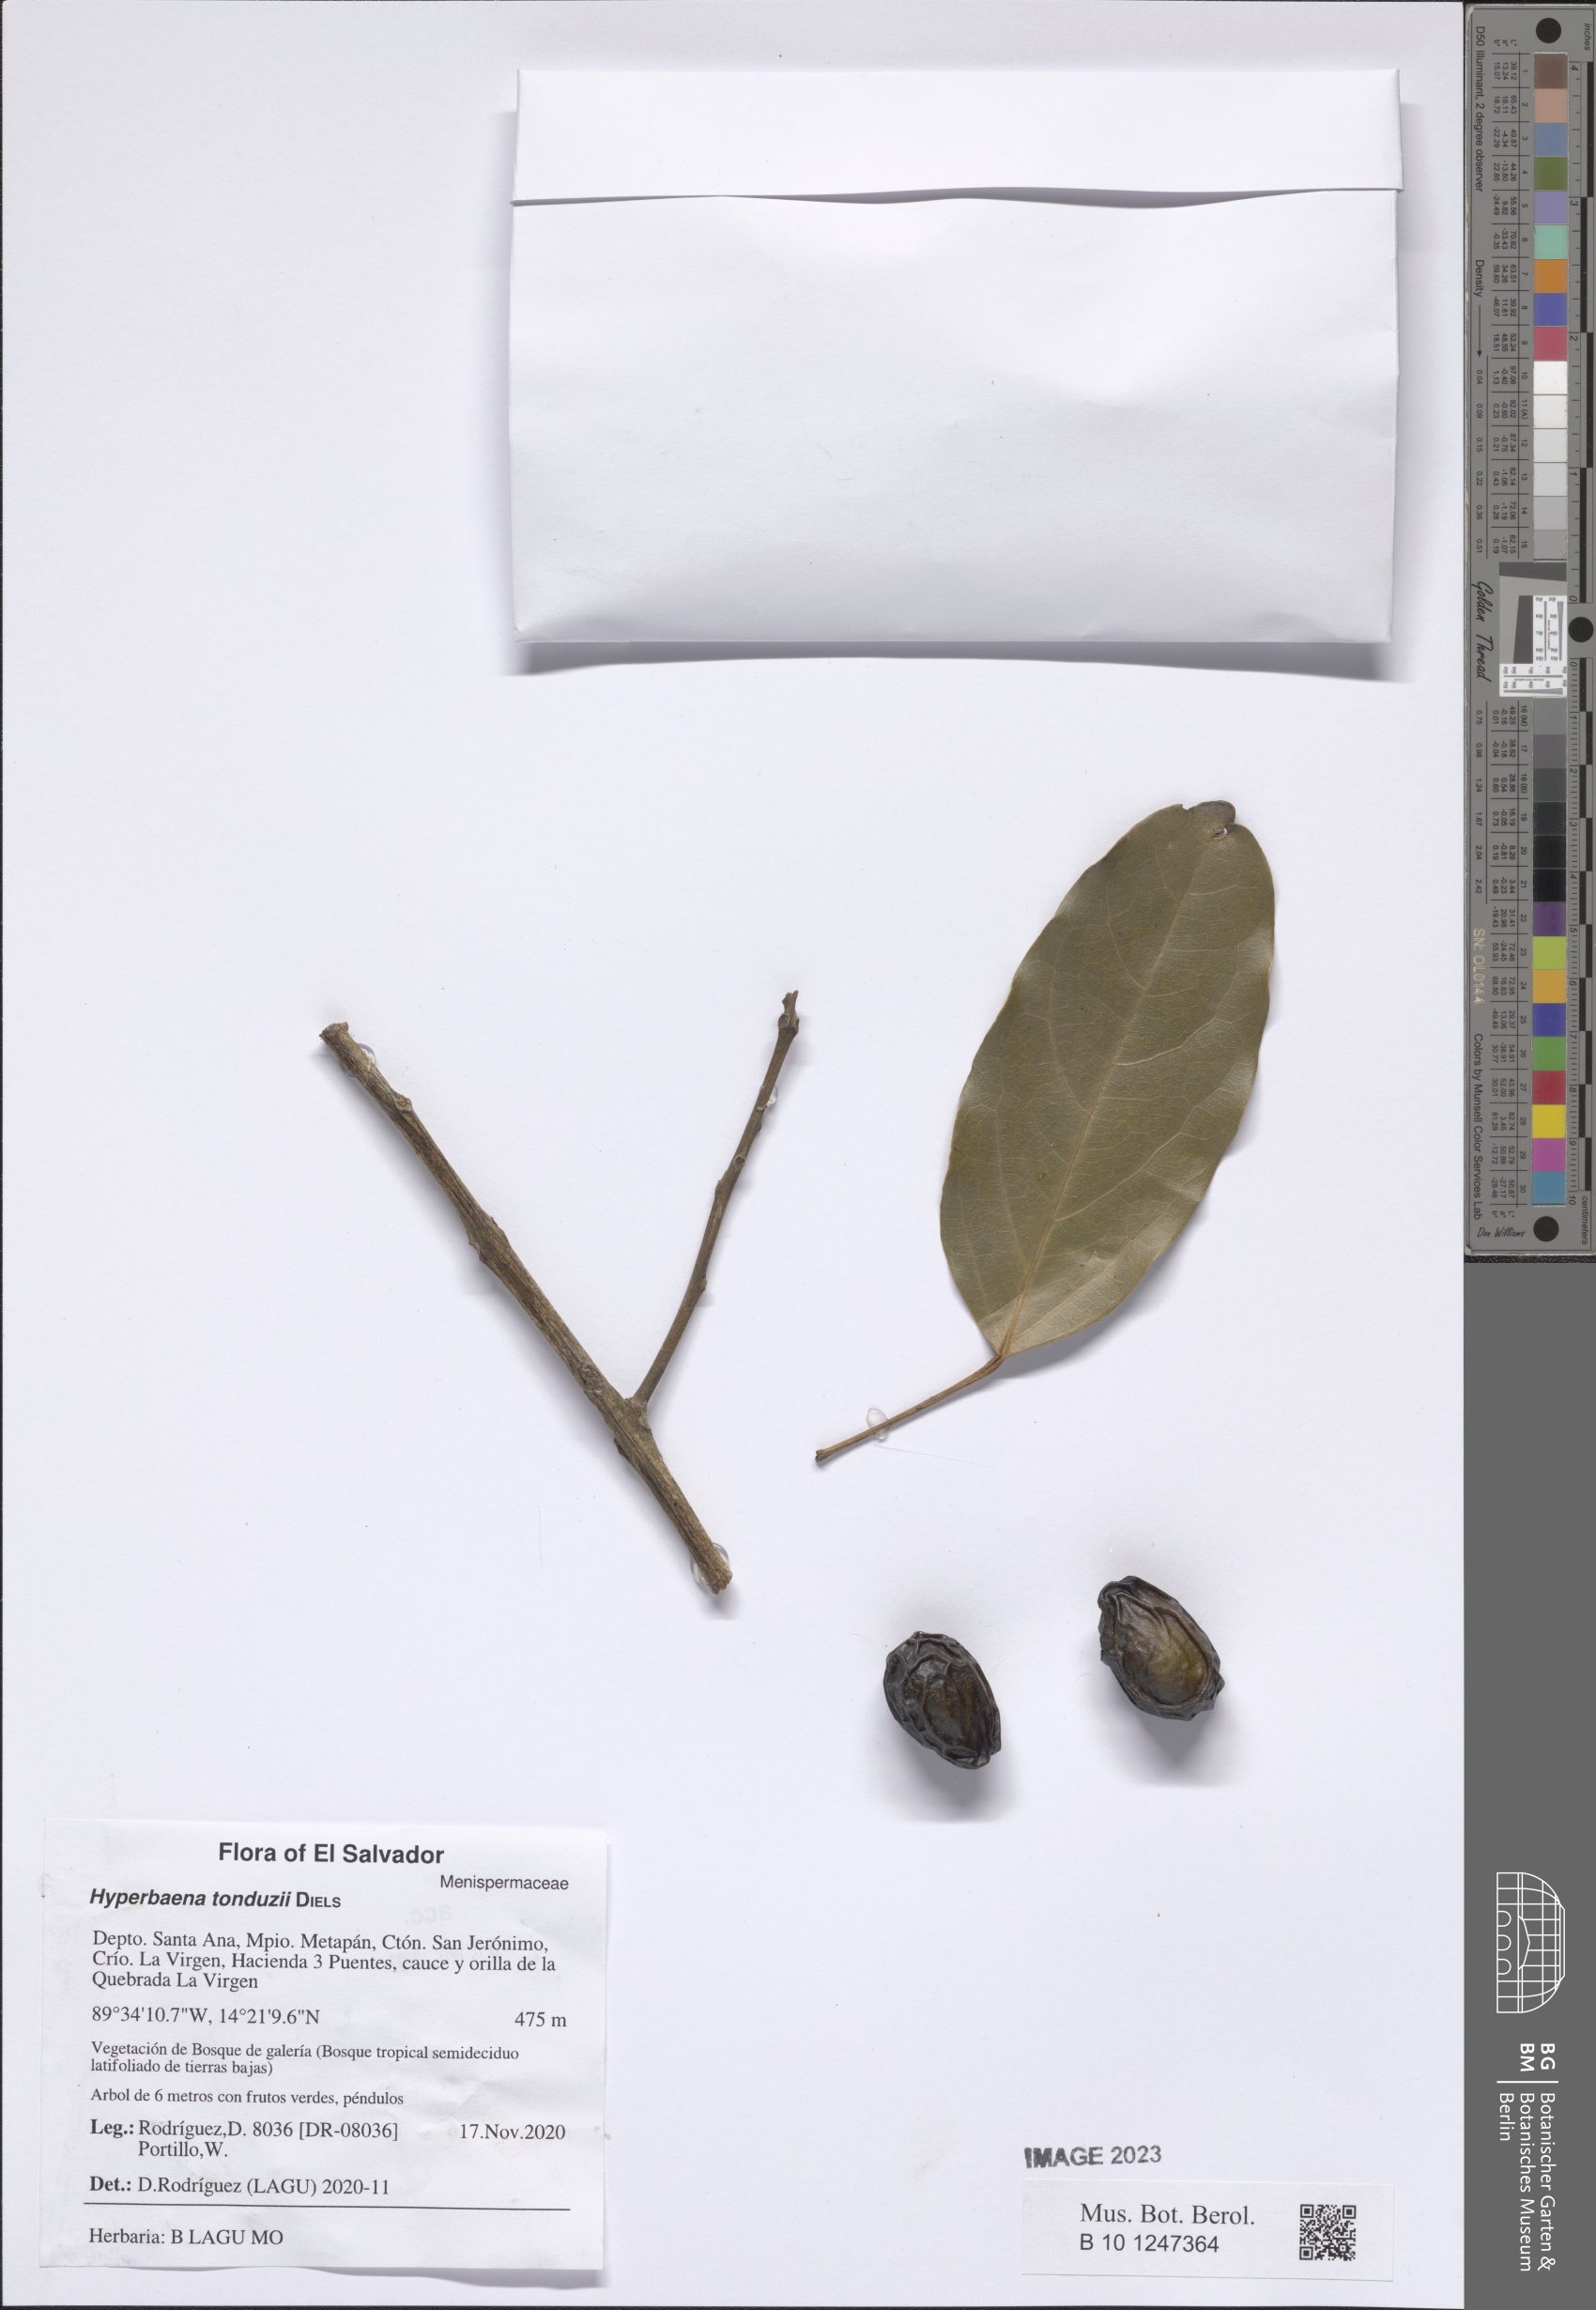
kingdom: Plantae
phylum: Tracheophyta
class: Magnoliopsida
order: Ranunculales
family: Menispermaceae
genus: Hyperbaena
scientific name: Hyperbaena tonduzii
